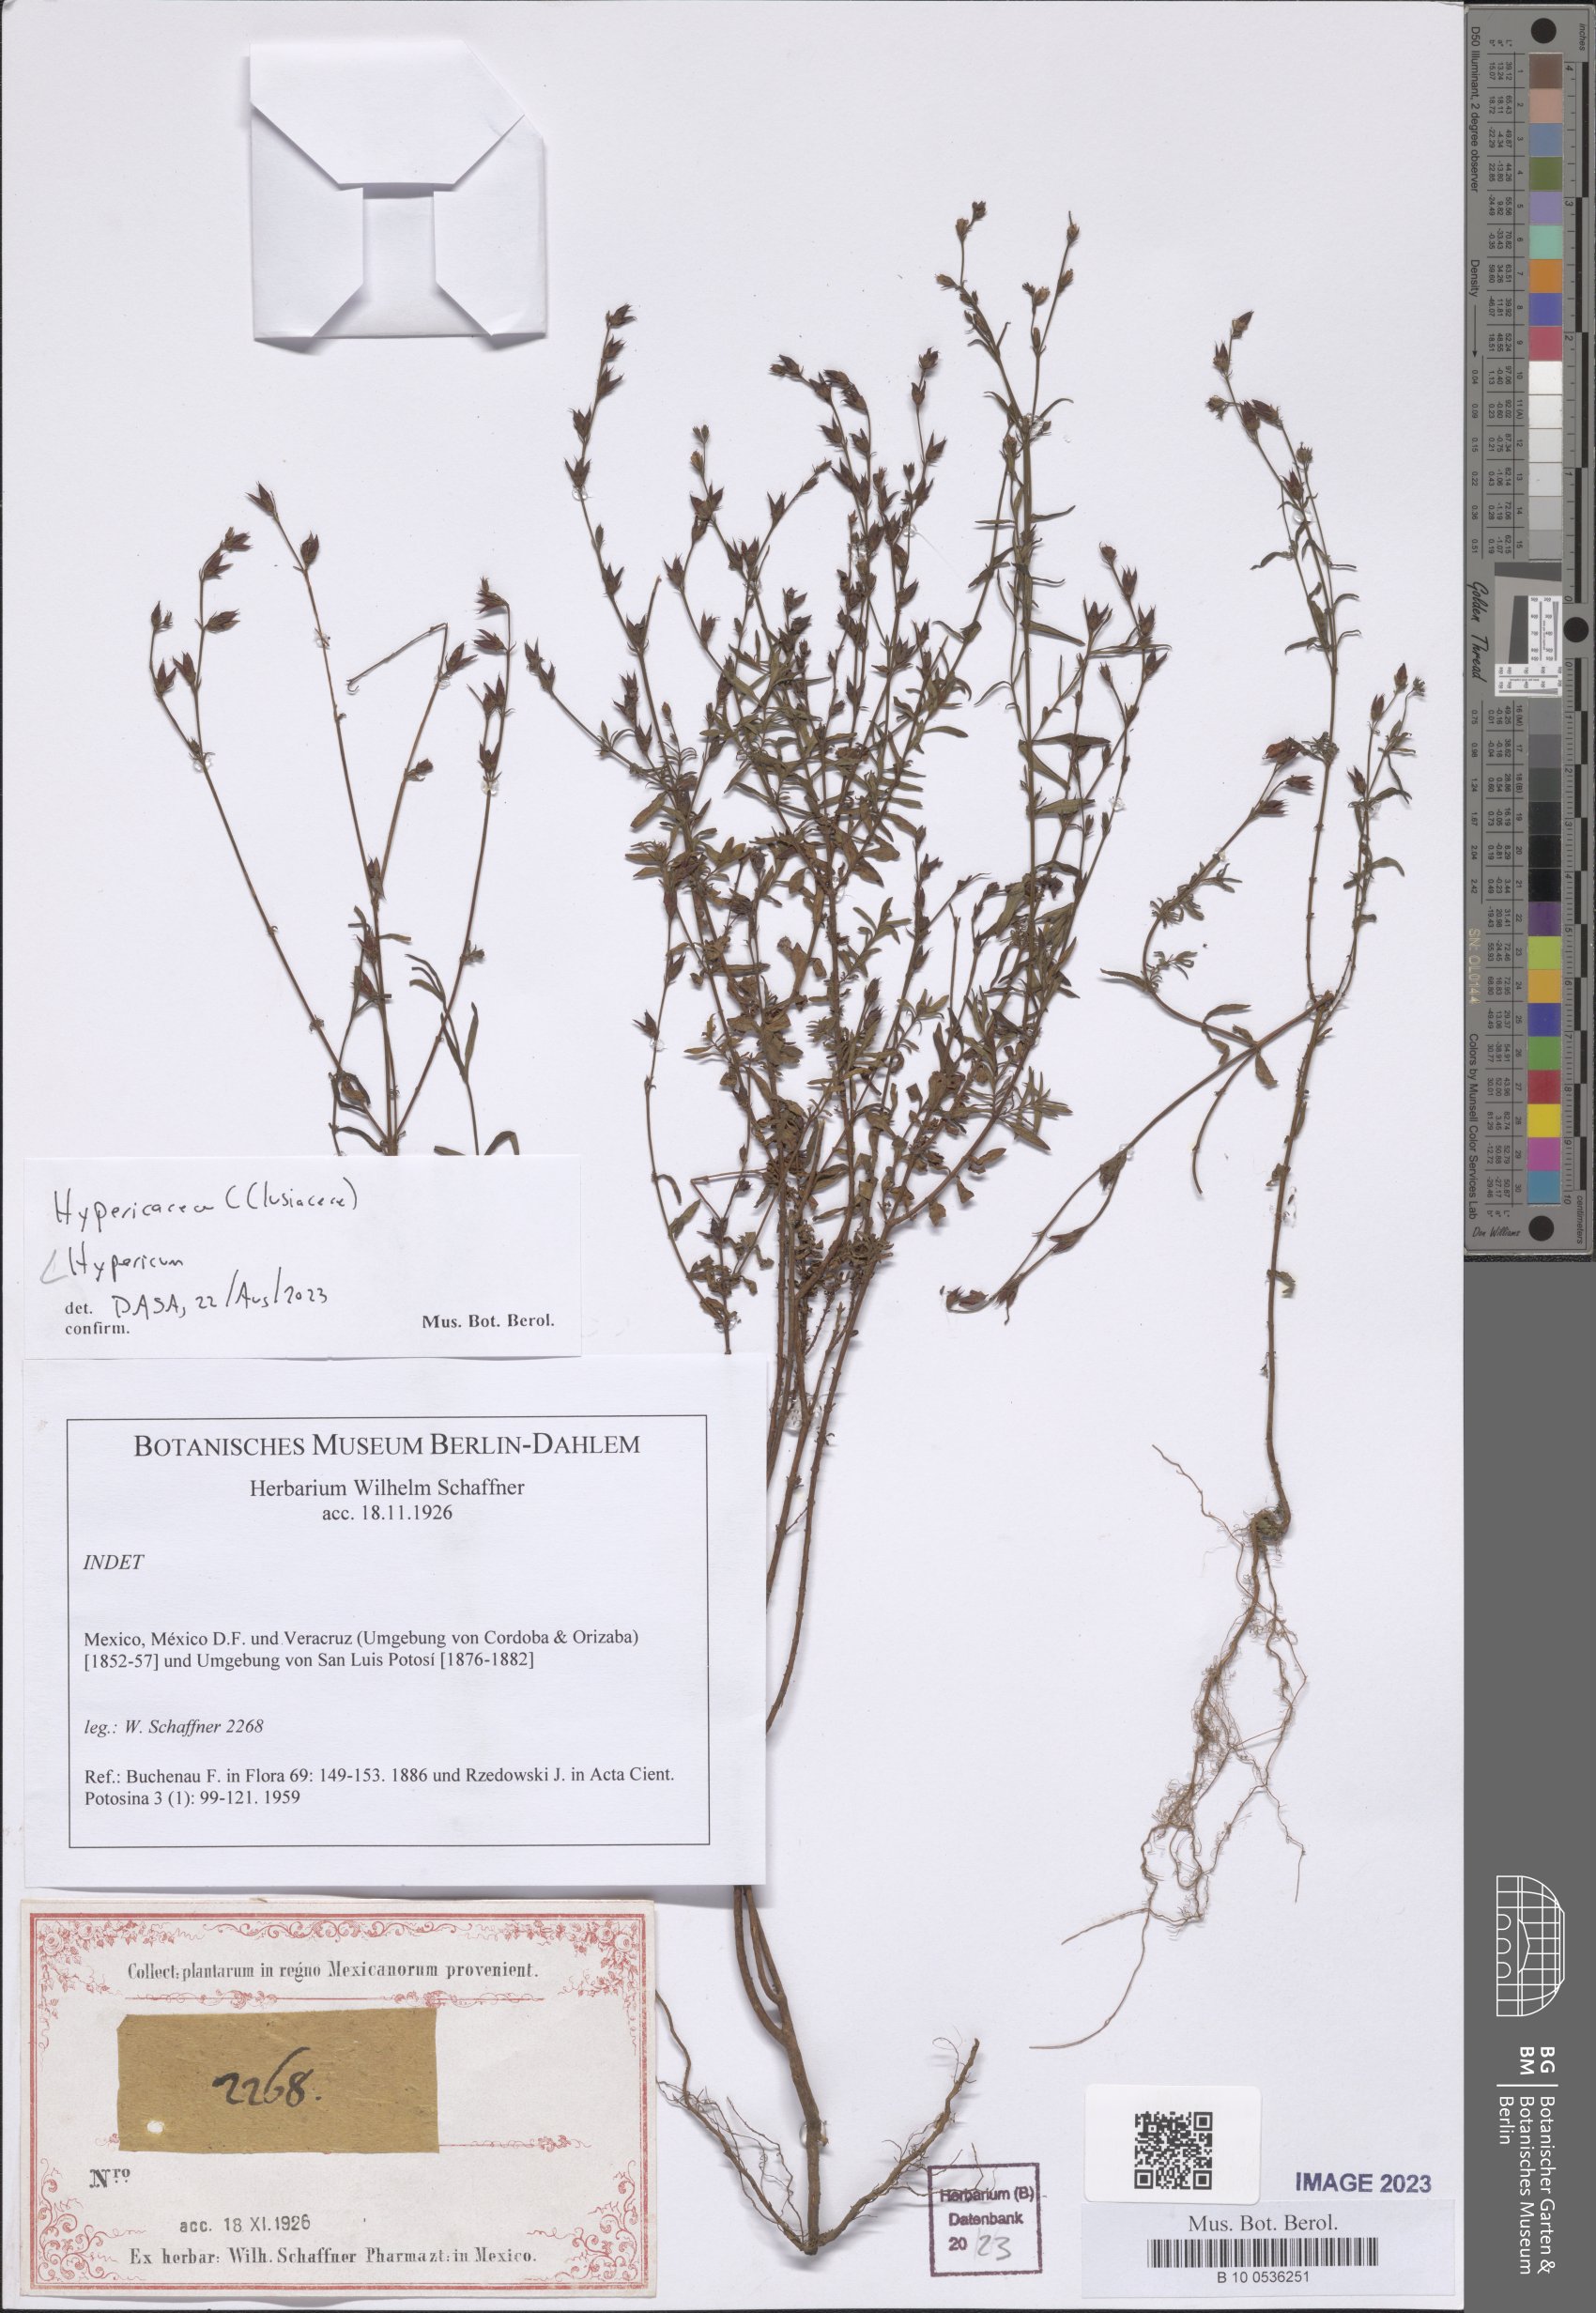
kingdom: Plantae
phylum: Tracheophyta
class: Magnoliopsida
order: Malpighiales
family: Hypericaceae
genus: Hypericum
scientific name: Hypericum
